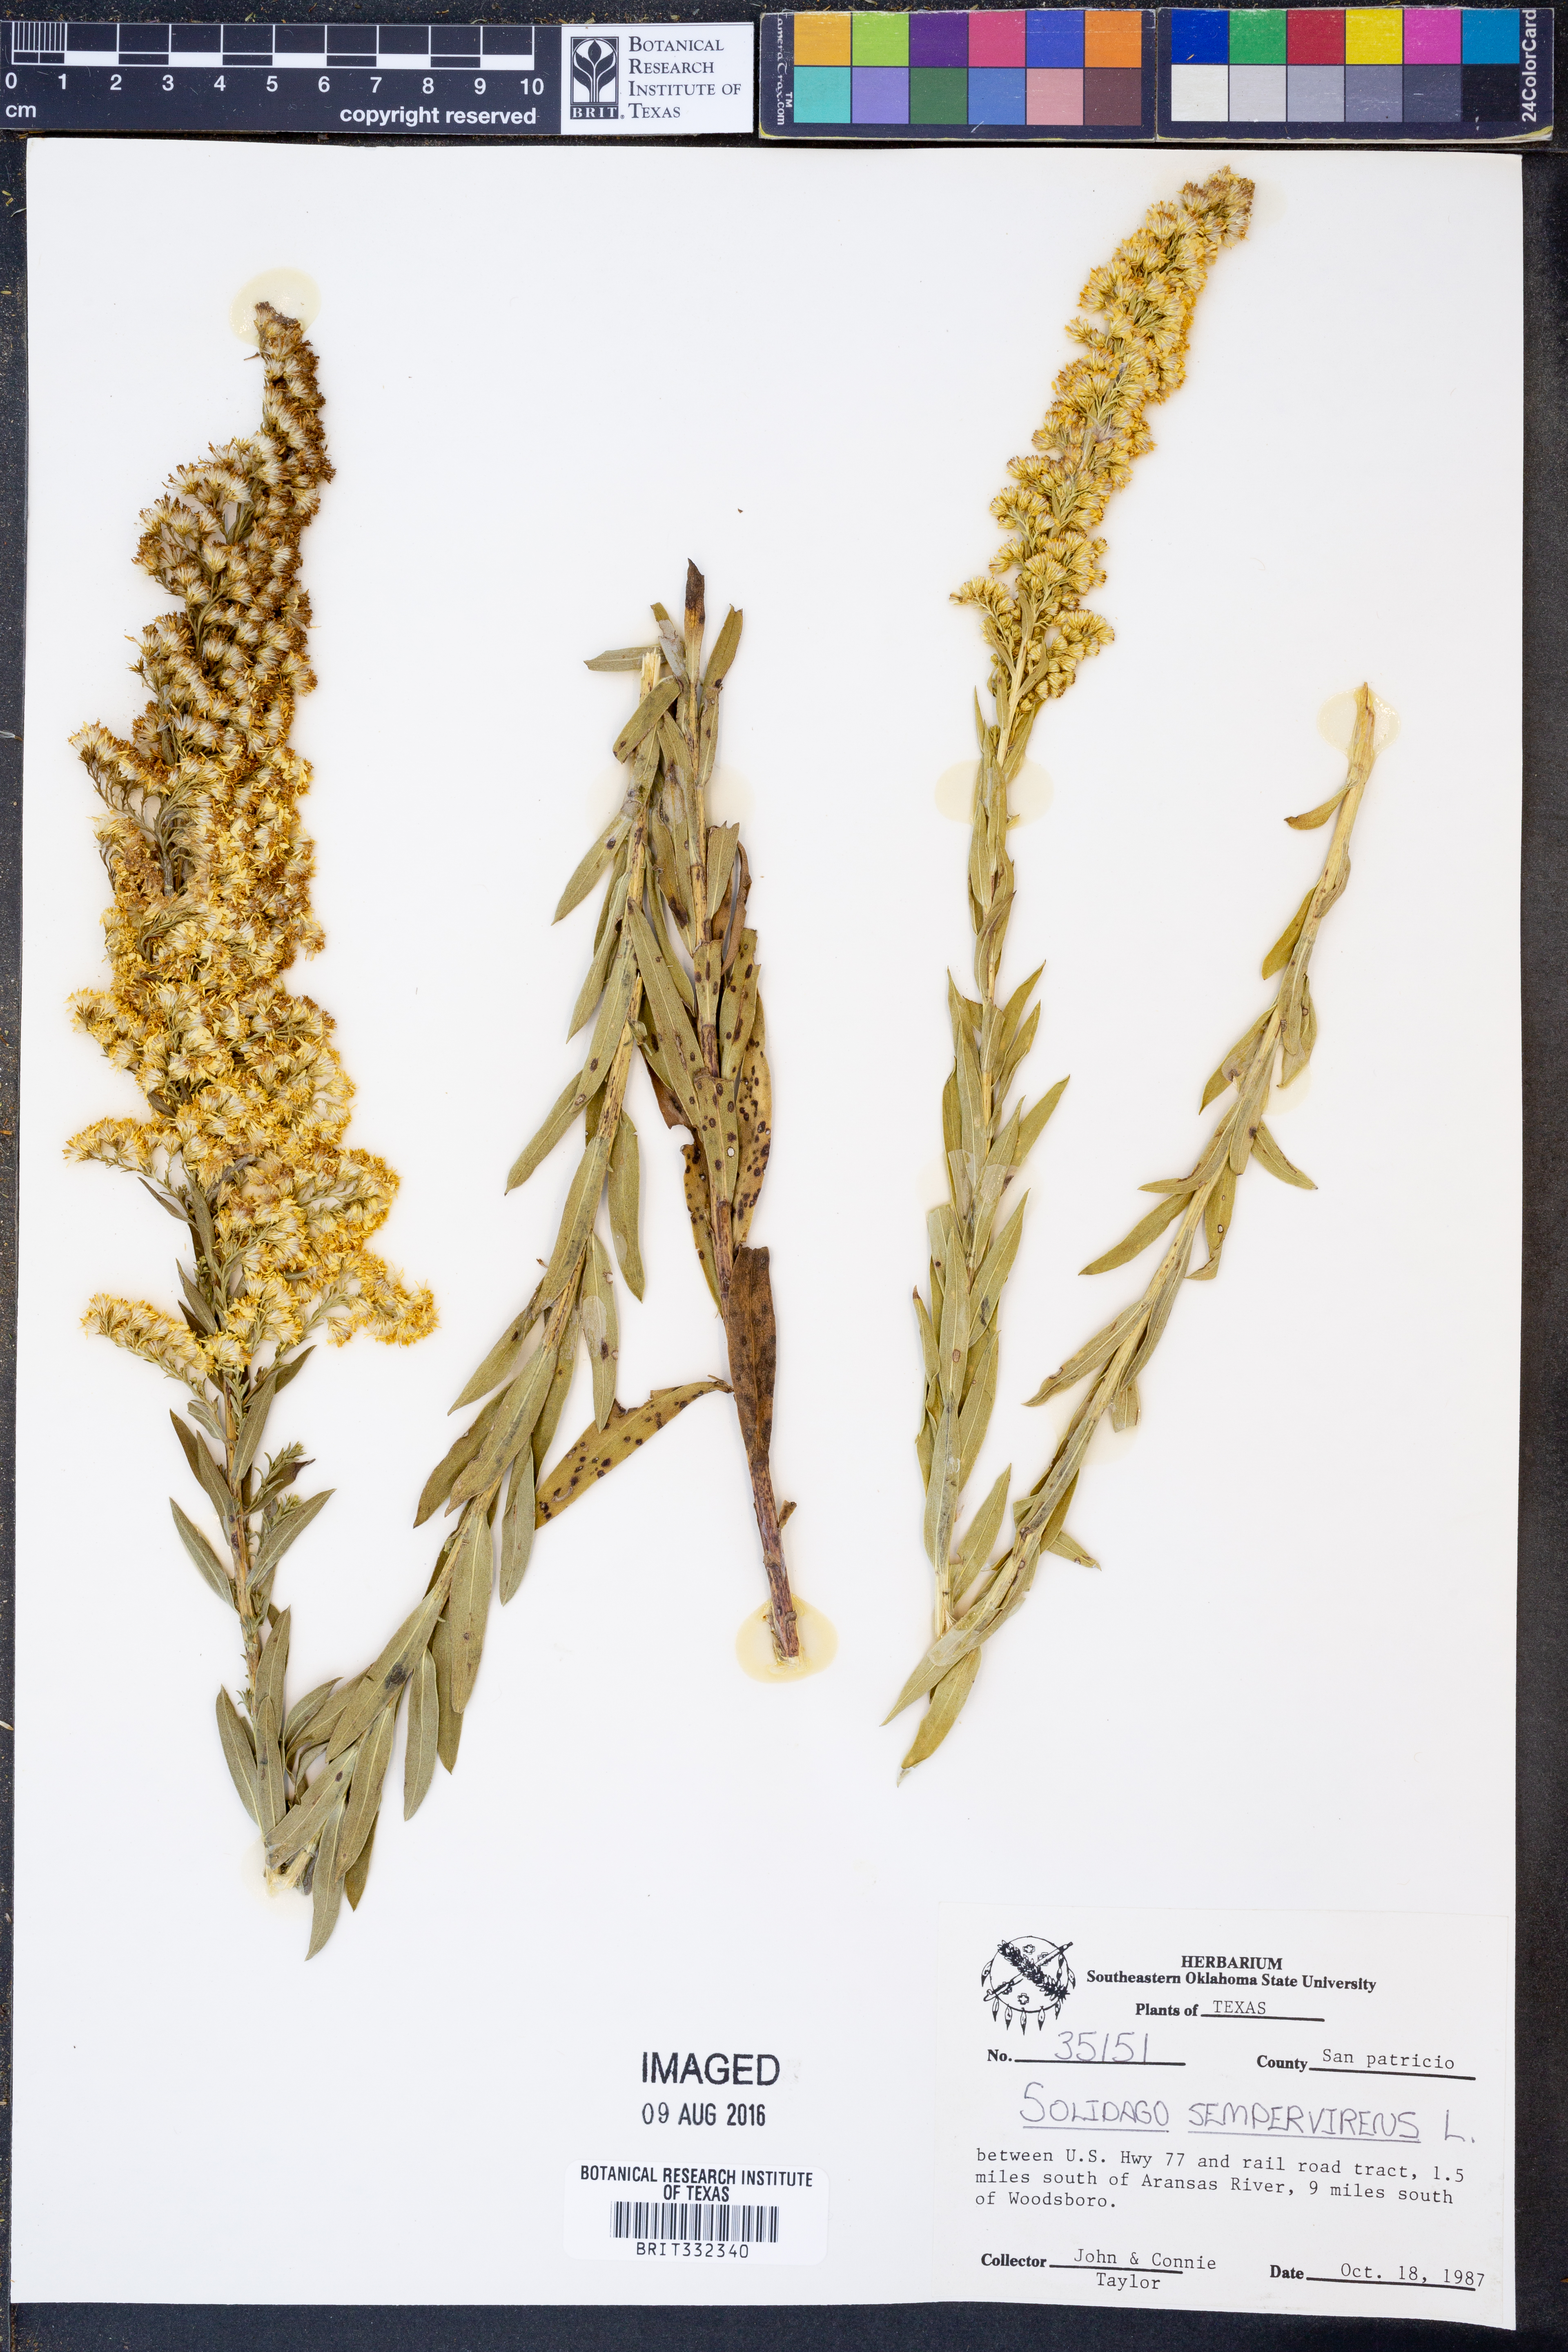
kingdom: Plantae
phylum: Tracheophyta
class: Magnoliopsida
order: Asterales
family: Asteraceae
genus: Solidago
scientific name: Solidago sempervirens
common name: Salt-marsh goldenrod
